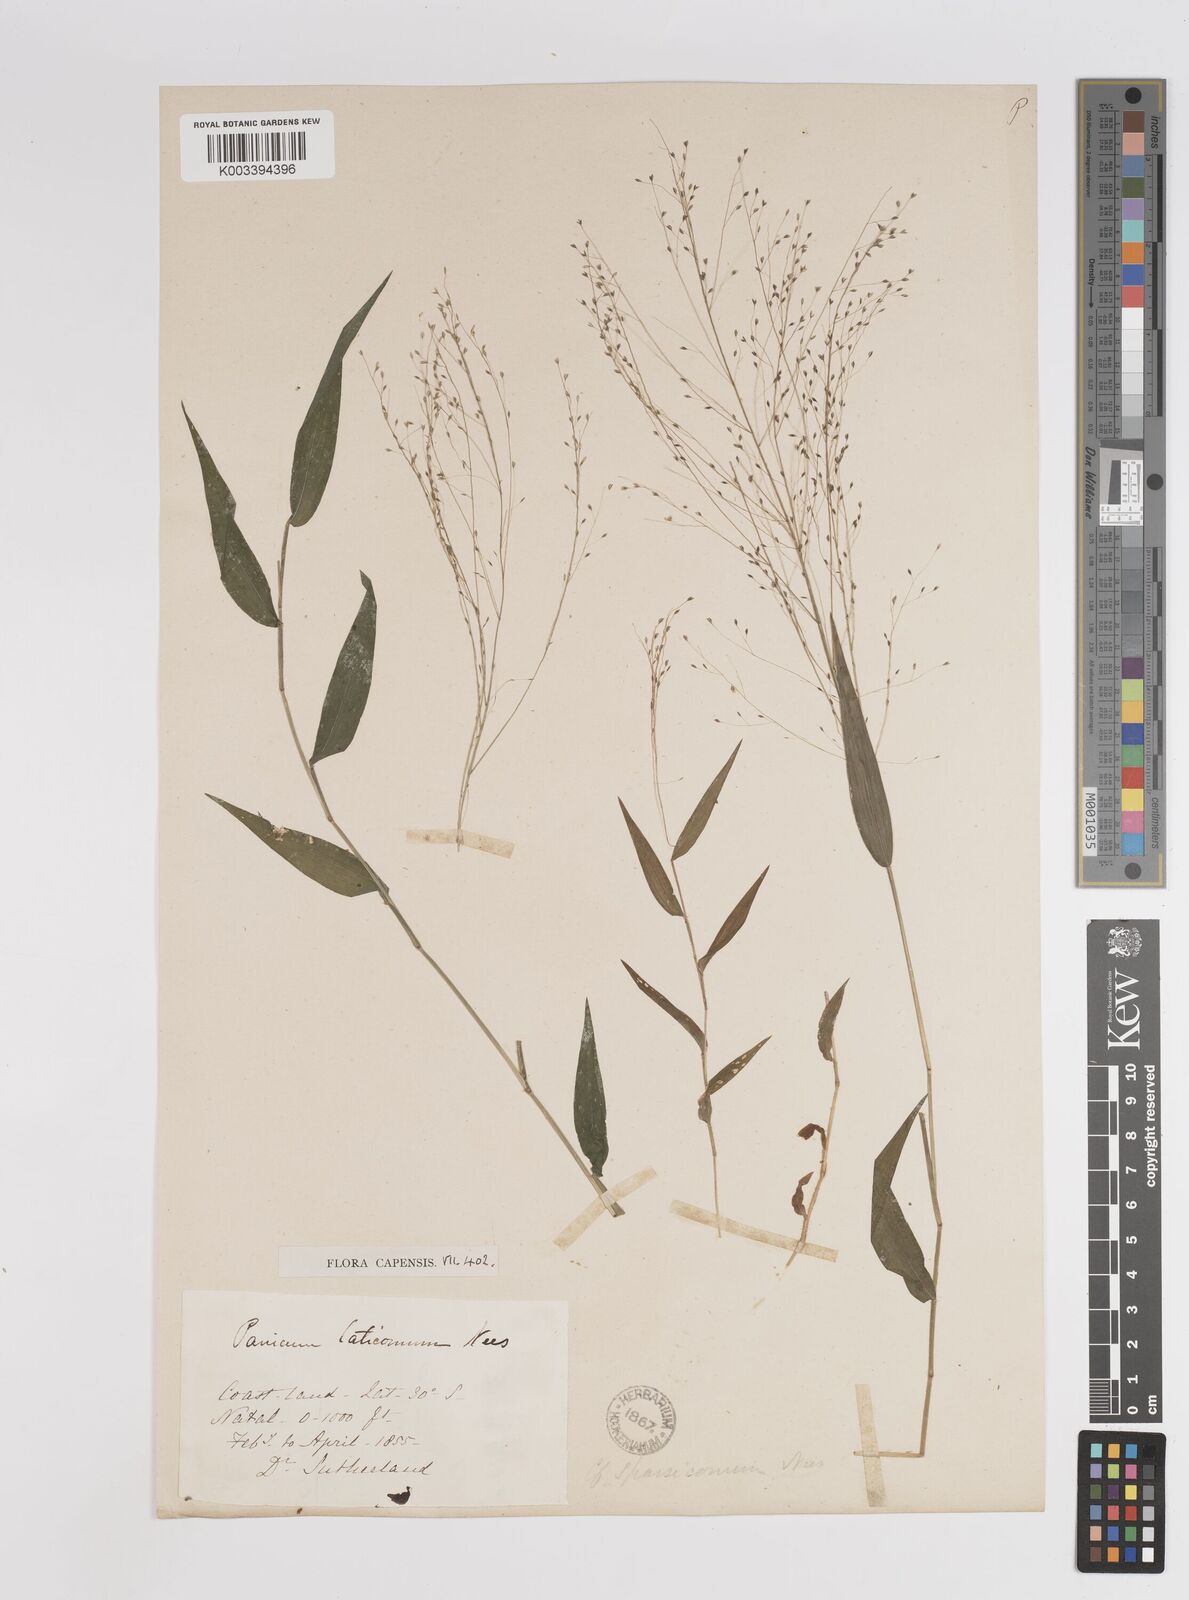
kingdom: Plantae
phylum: Tracheophyta
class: Liliopsida
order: Poales
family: Poaceae
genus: Panicum
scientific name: Panicum laticomum
